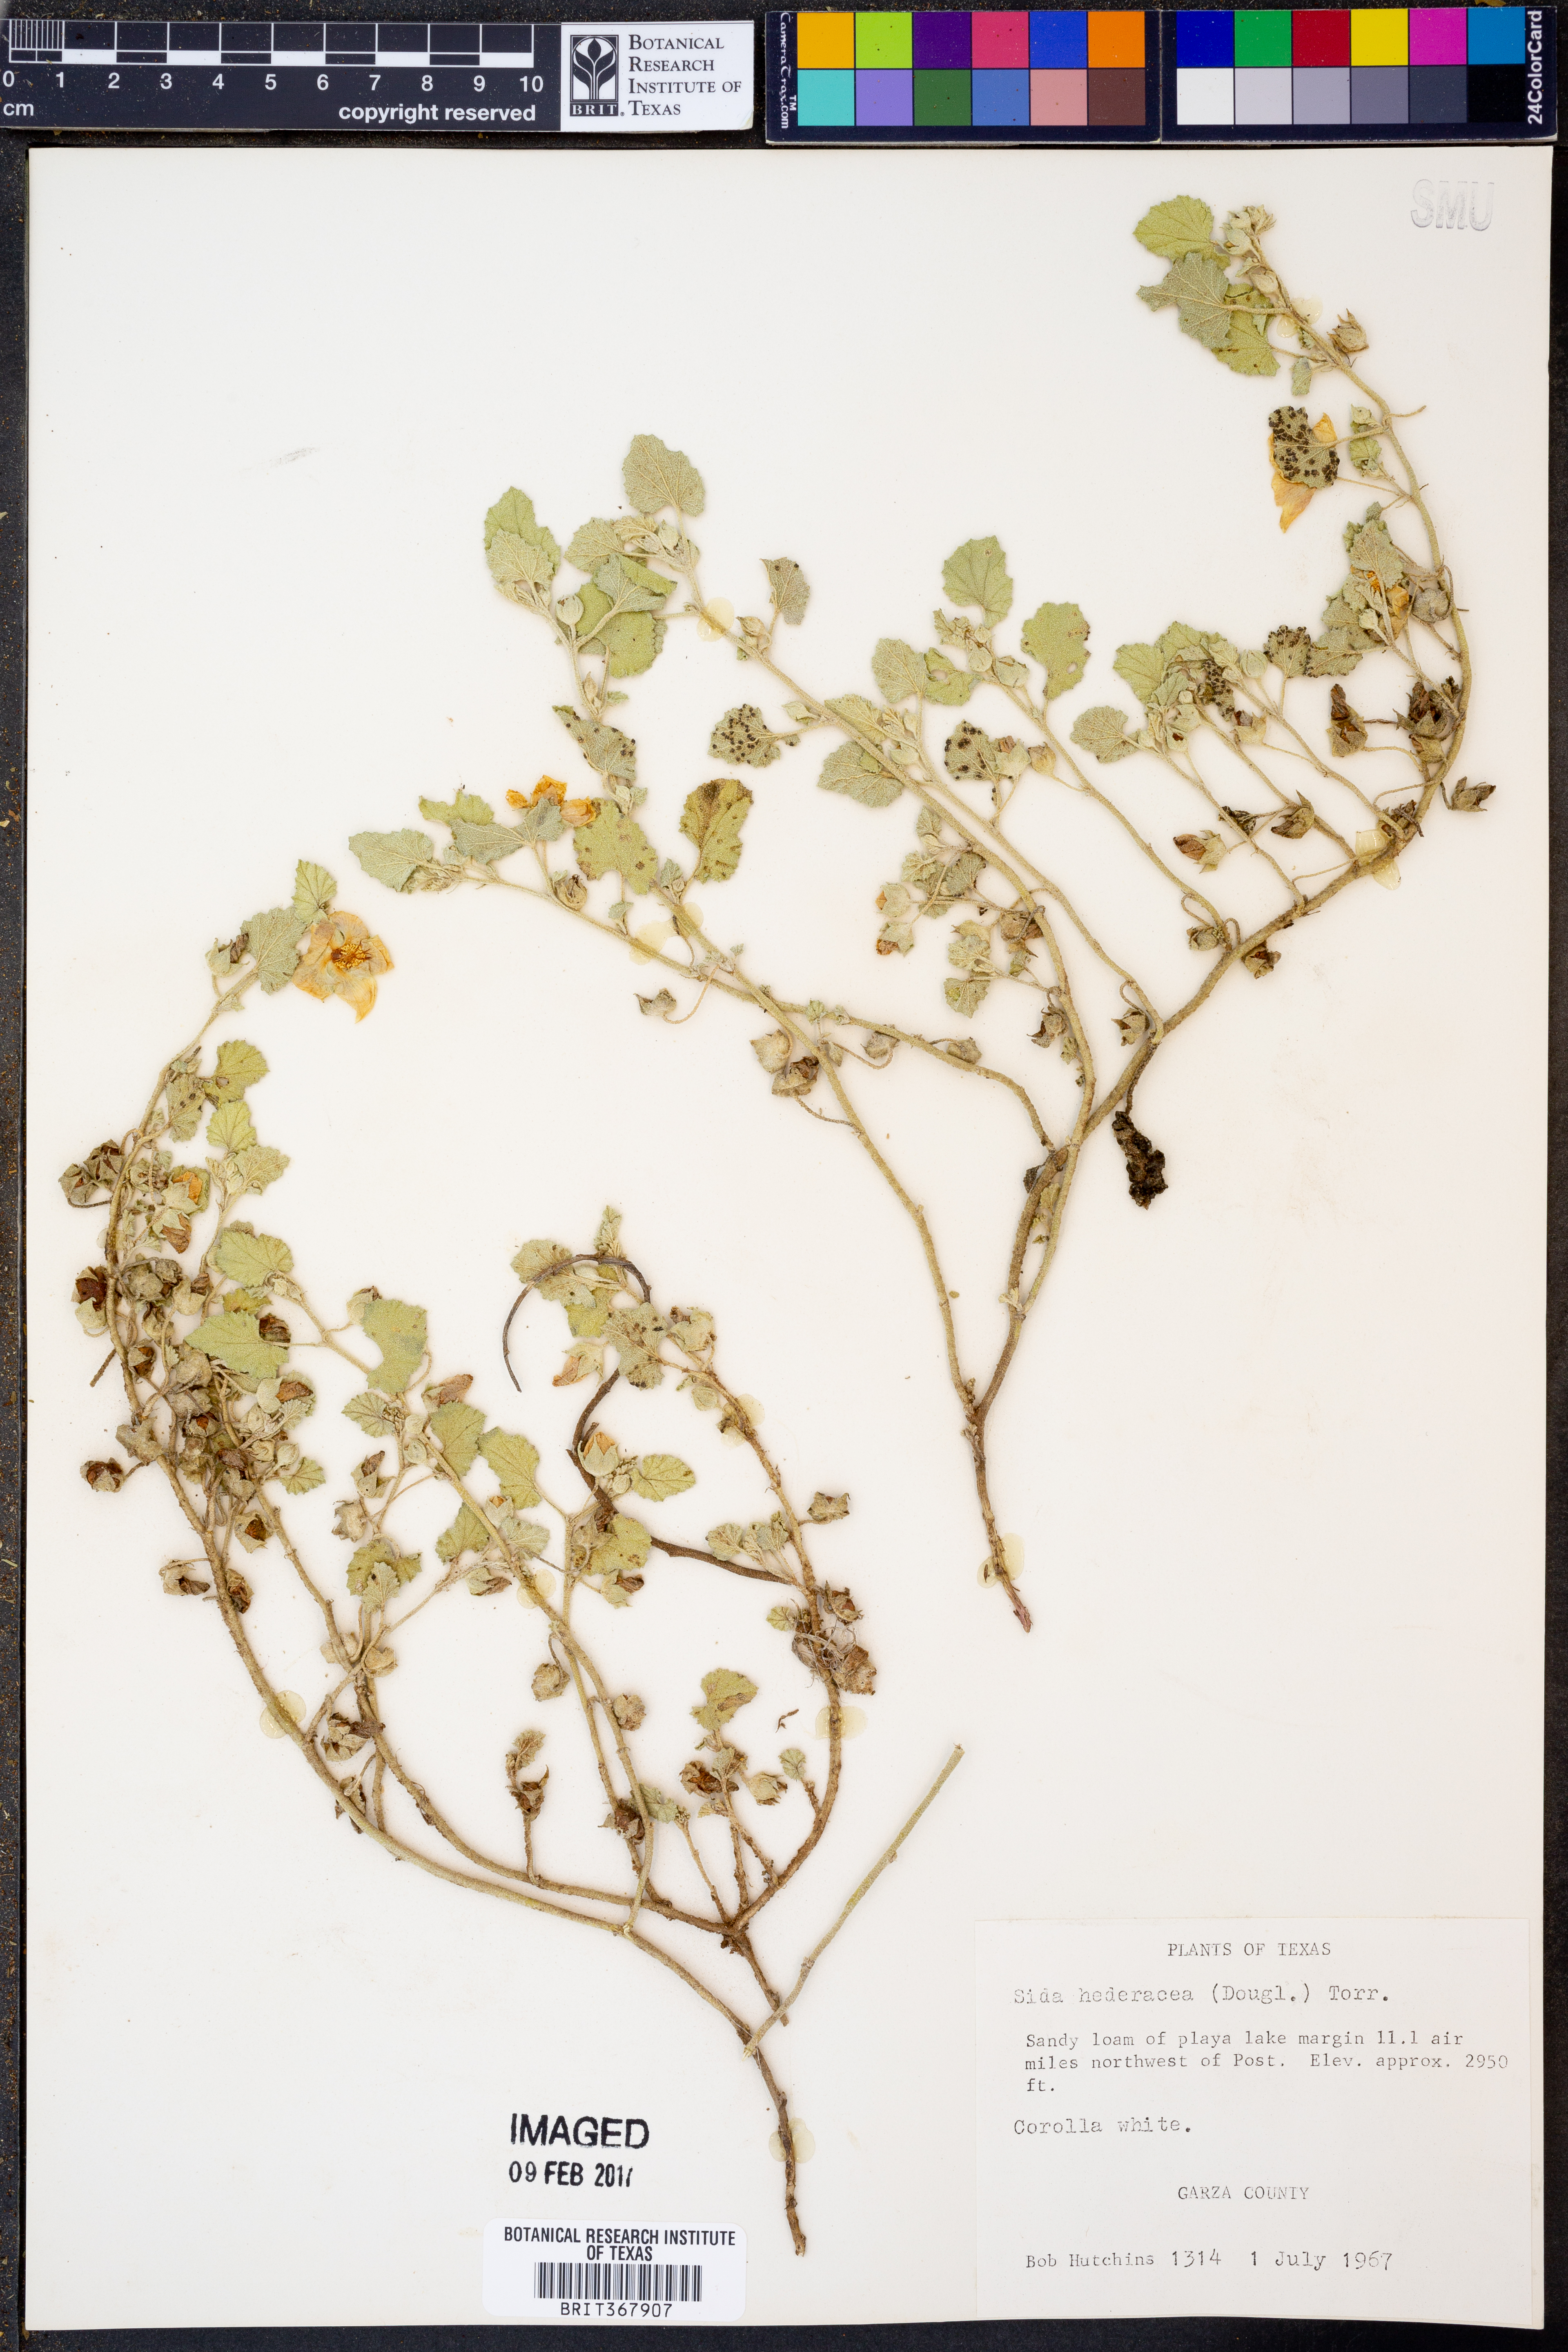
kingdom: Plantae
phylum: Tracheophyta
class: Magnoliopsida
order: Malvales
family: Malvaceae
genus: Malvella
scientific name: Malvella leprosa
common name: Alkali-mallow
